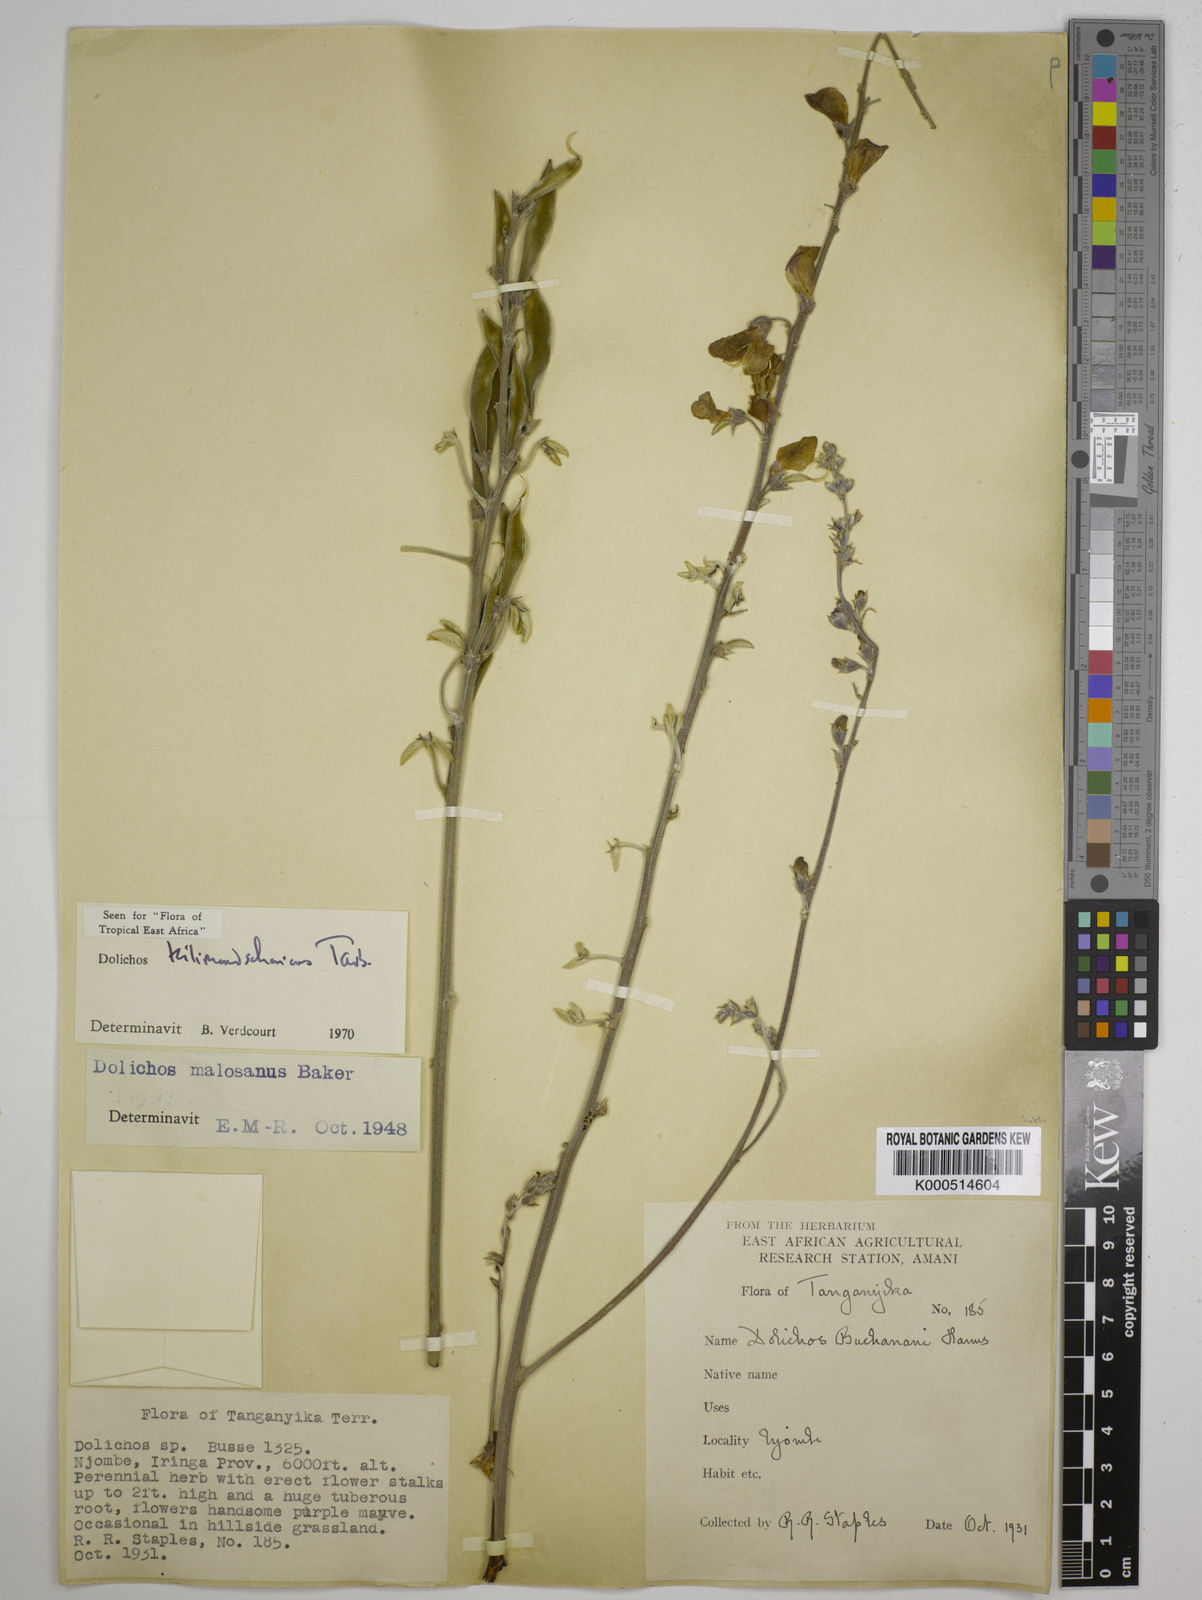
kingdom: Plantae
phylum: Tracheophyta
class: Magnoliopsida
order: Fabales
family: Fabaceae
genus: Dolichos
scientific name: Dolichos kilimandscharicus
